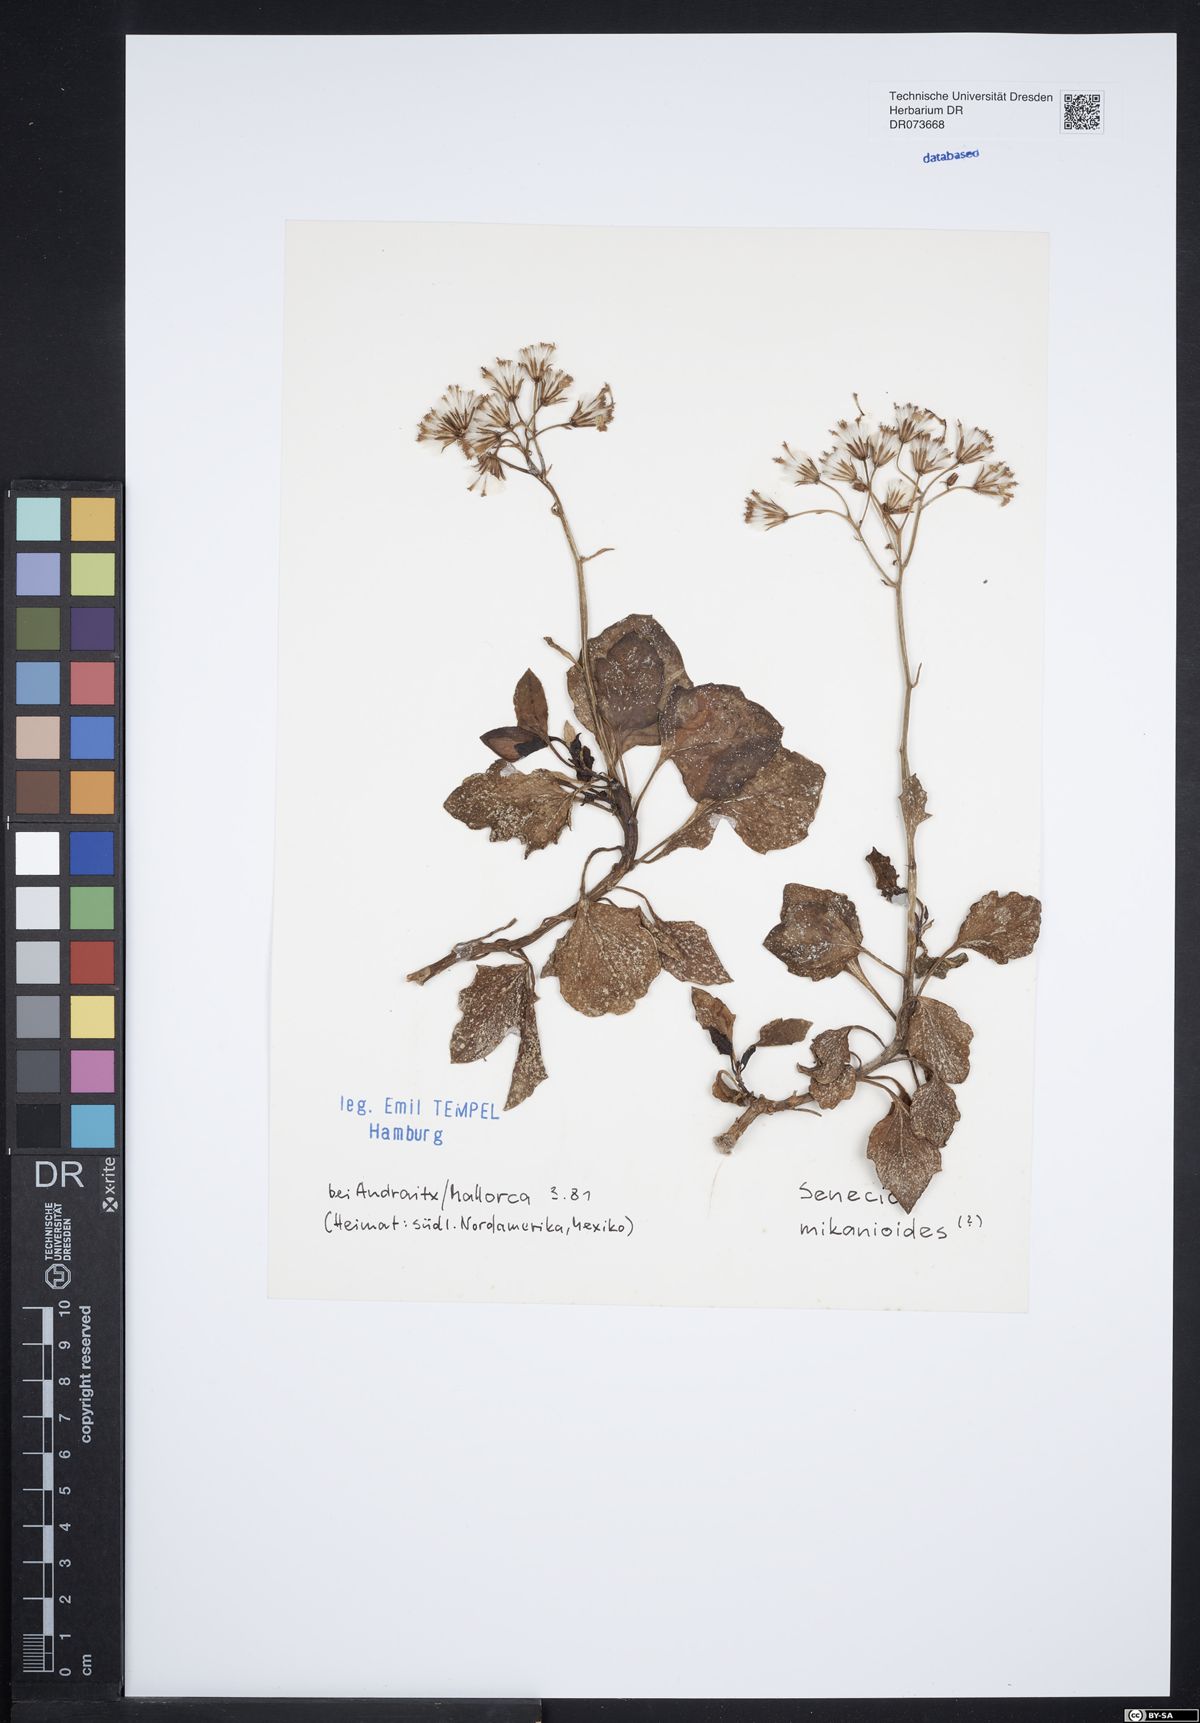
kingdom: Plantae
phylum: Tracheophyta
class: Magnoliopsida
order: Asterales
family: Asteraceae
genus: Delairea
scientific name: Delairea odorata
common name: Cape-ivy
